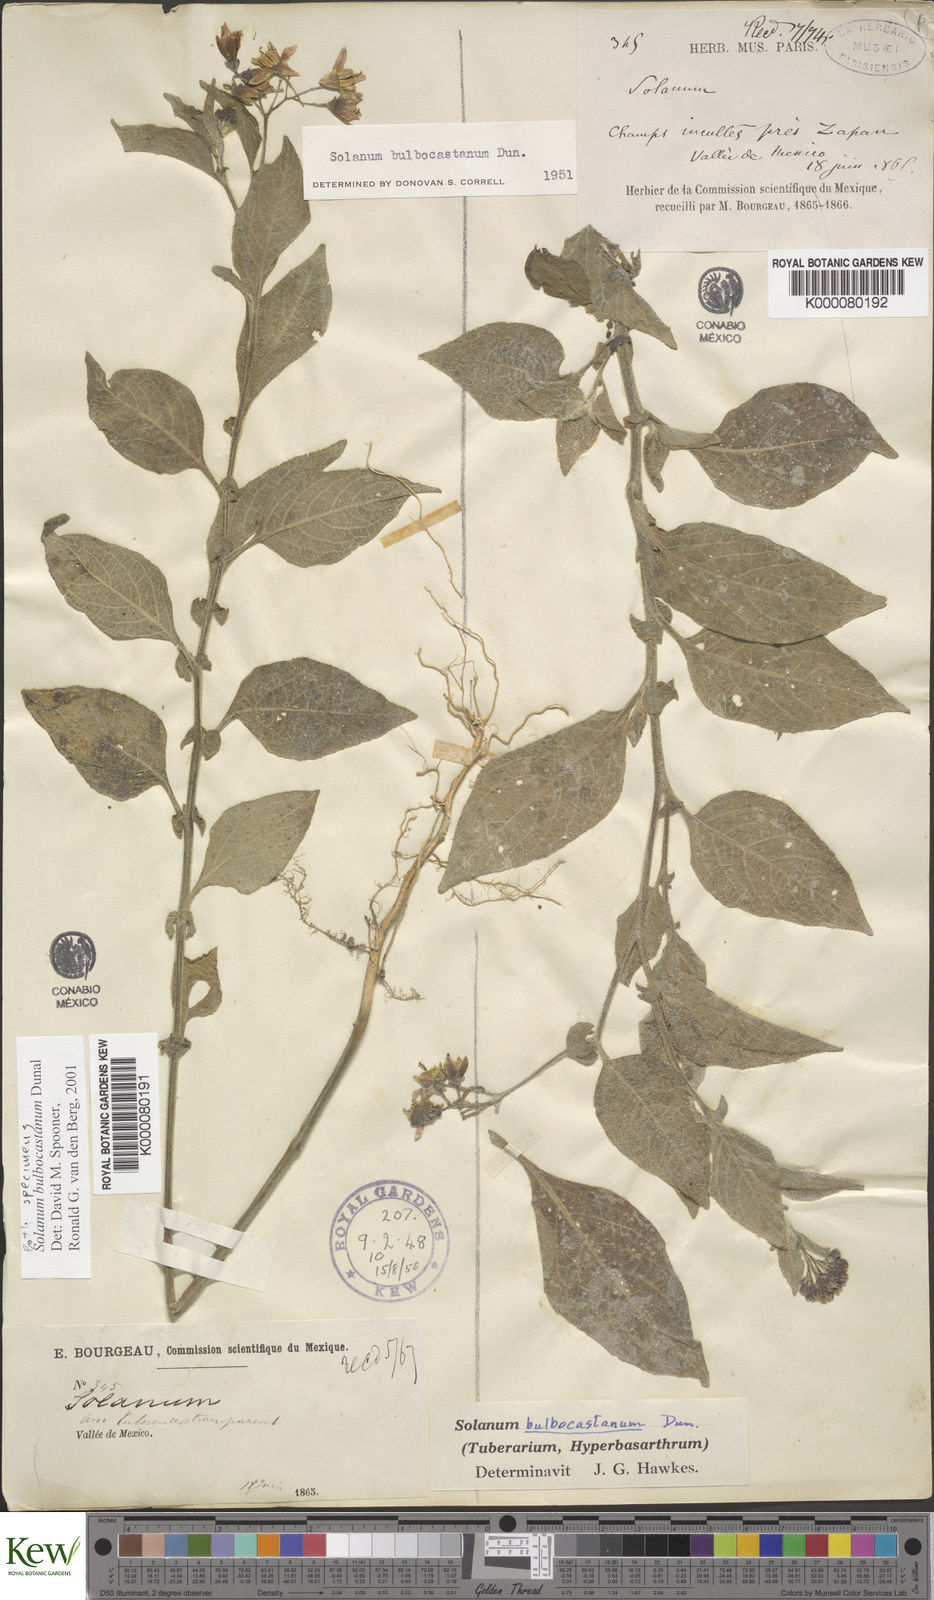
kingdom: Plantae
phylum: Tracheophyta
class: Magnoliopsida
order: Solanales
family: Solanaceae
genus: Solanum
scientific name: Solanum bulbocastanum
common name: Ornamental nightshade
